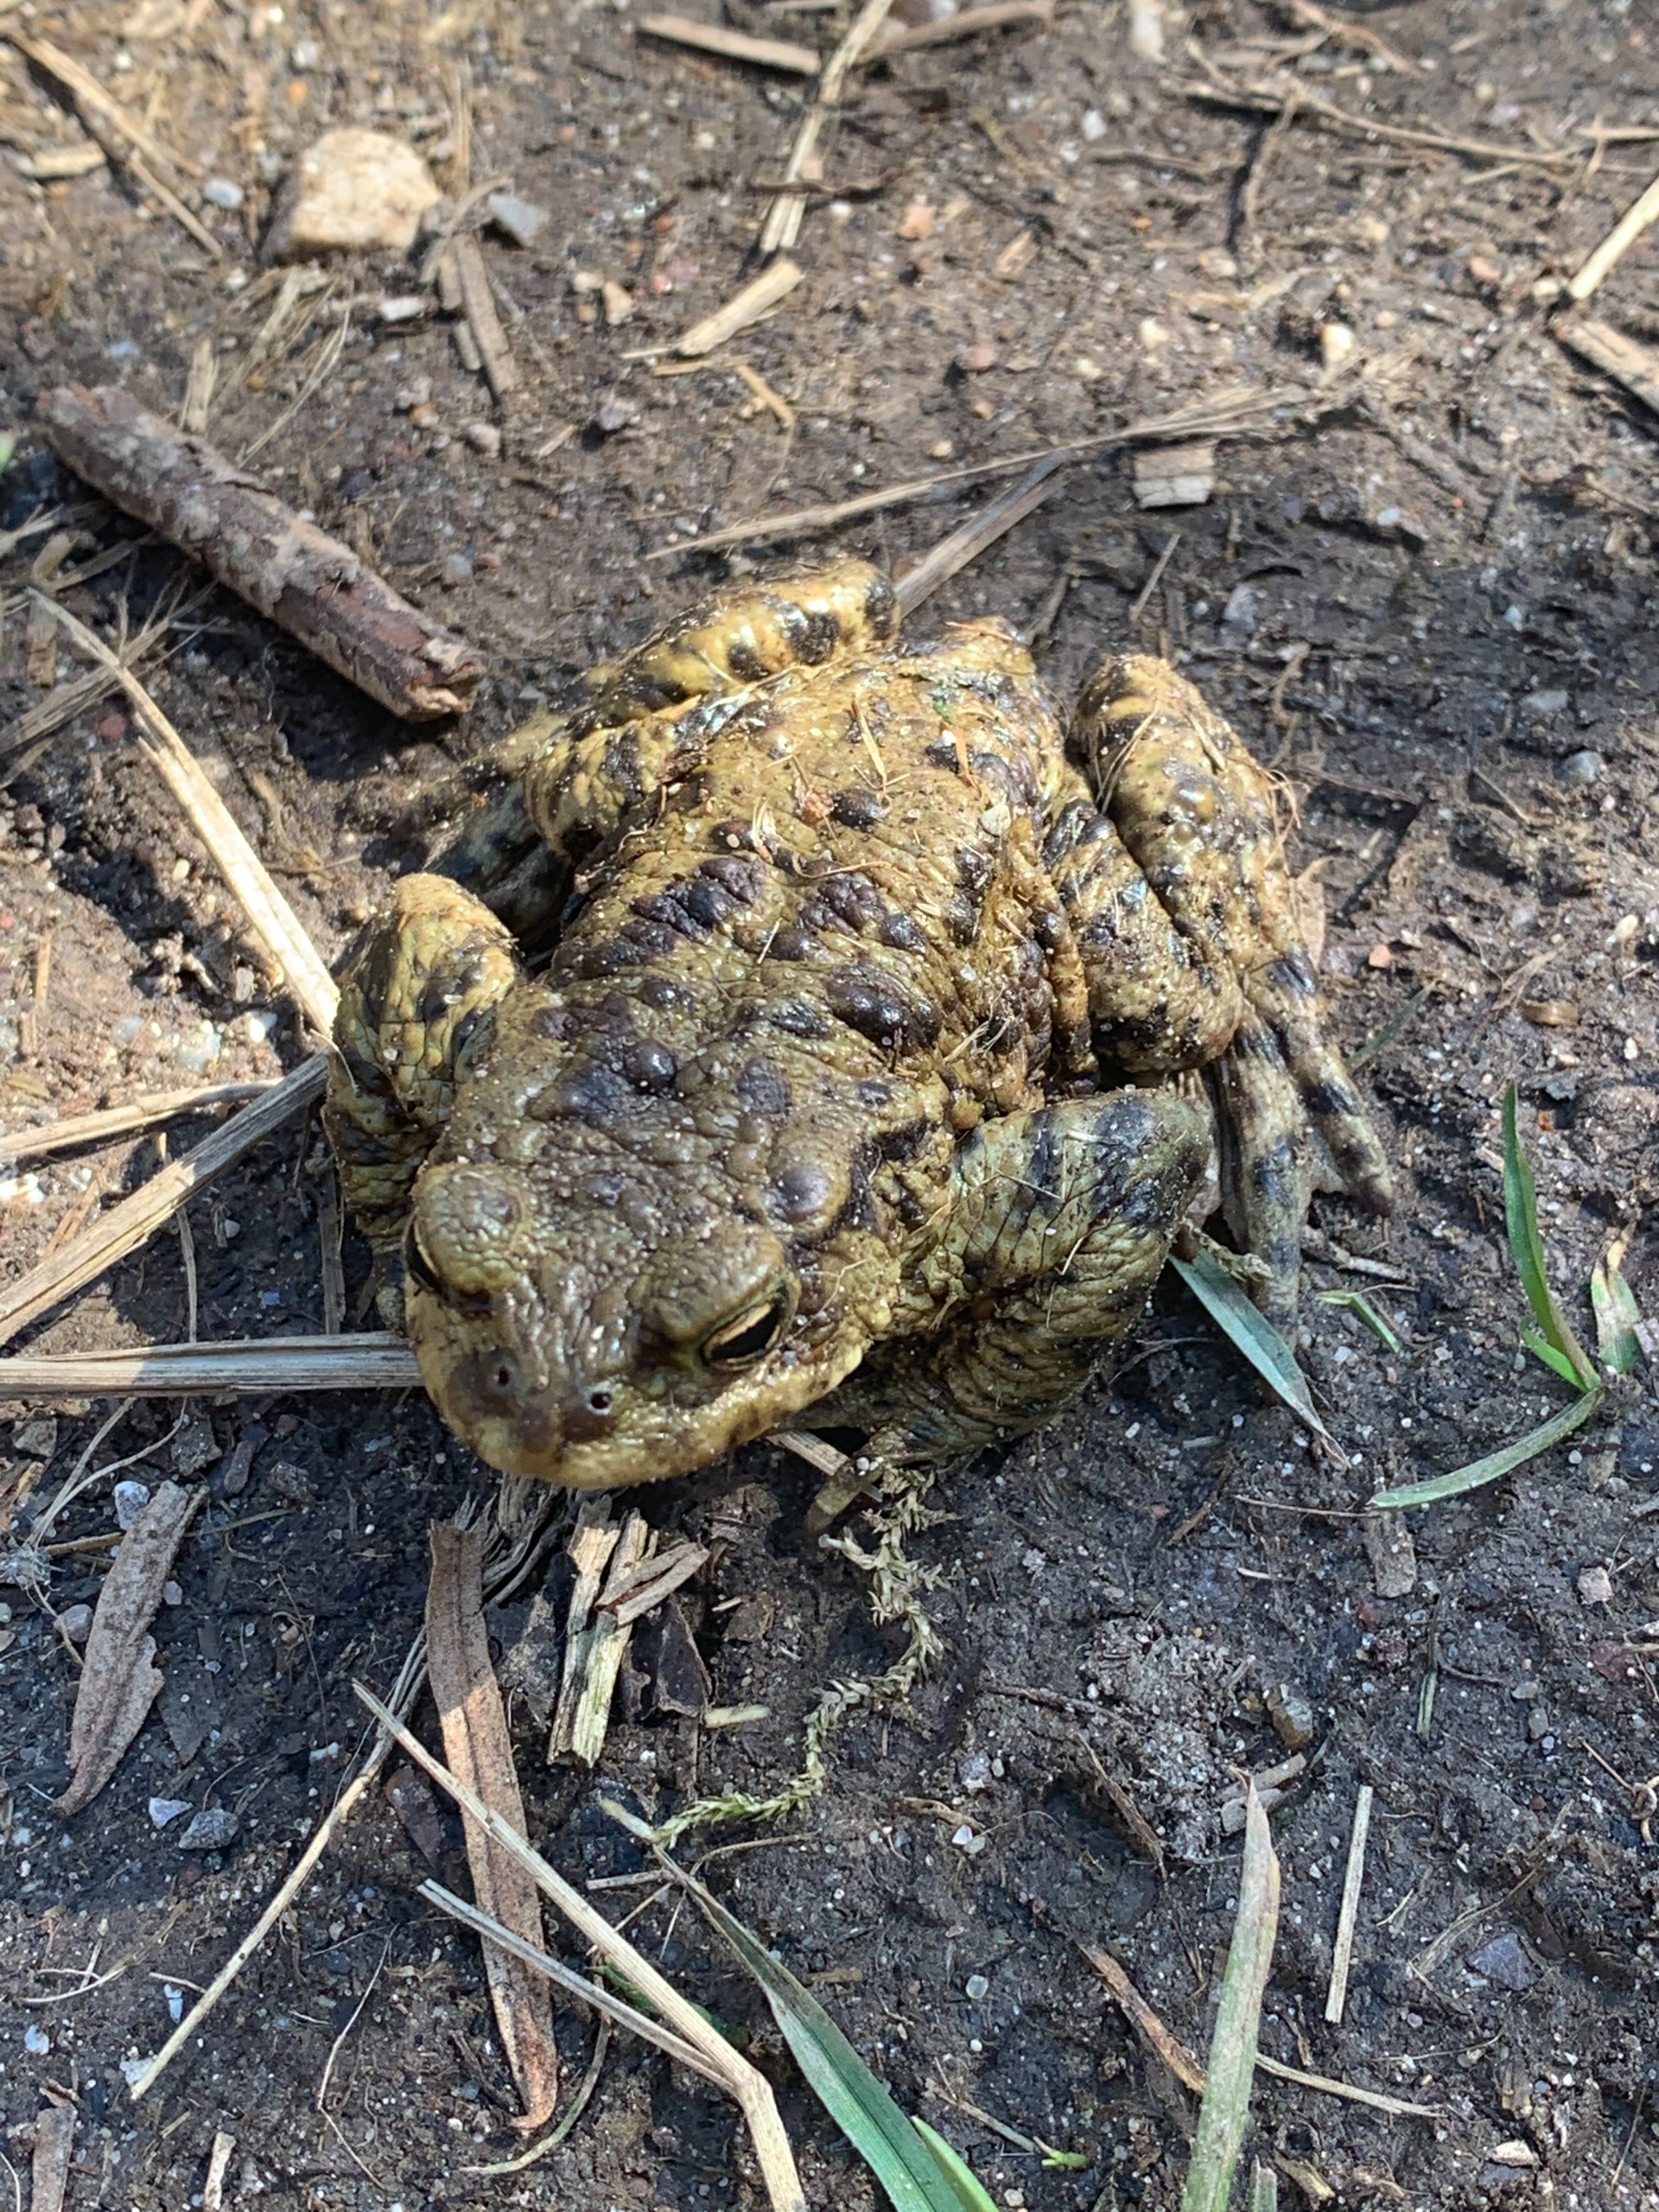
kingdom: Animalia
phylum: Chordata
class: Amphibia
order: Anura
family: Bufonidae
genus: Bufo
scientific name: Bufo bufo
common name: Skrubtudse
